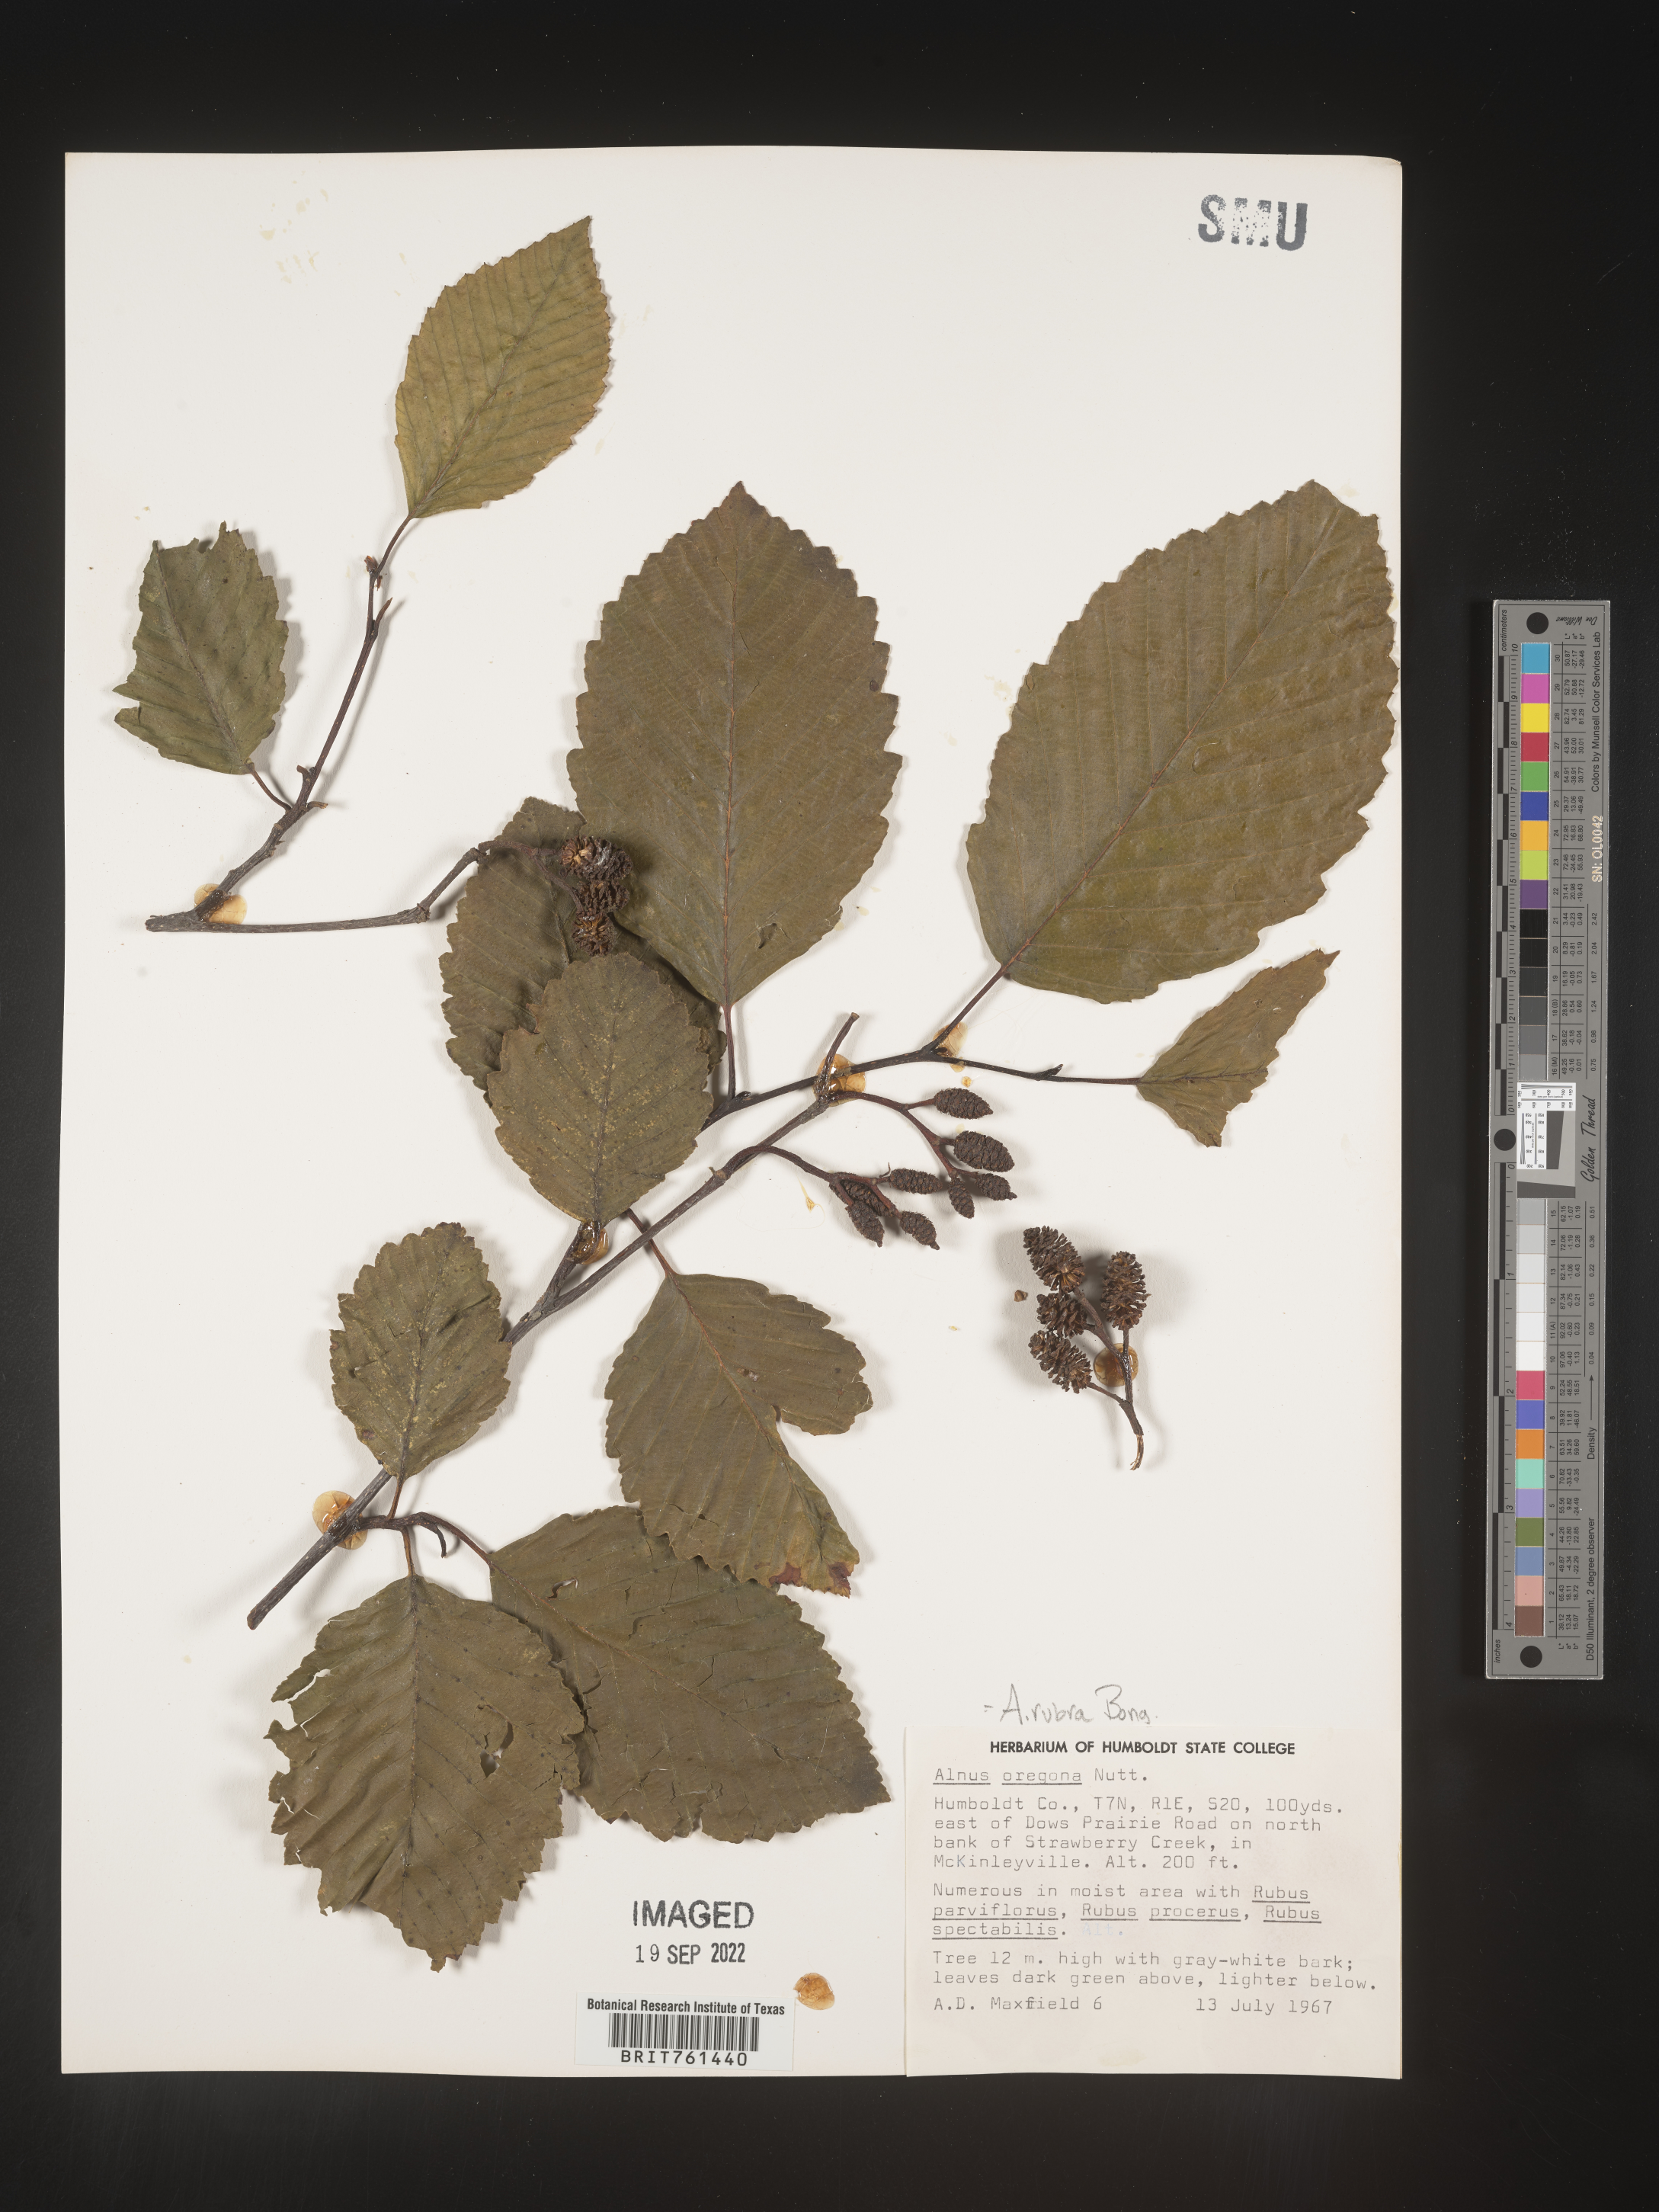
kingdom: Plantae
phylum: Tracheophyta
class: Magnoliopsida
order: Fagales
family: Betulaceae
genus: Alnus
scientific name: Alnus rubra
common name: Red alder
